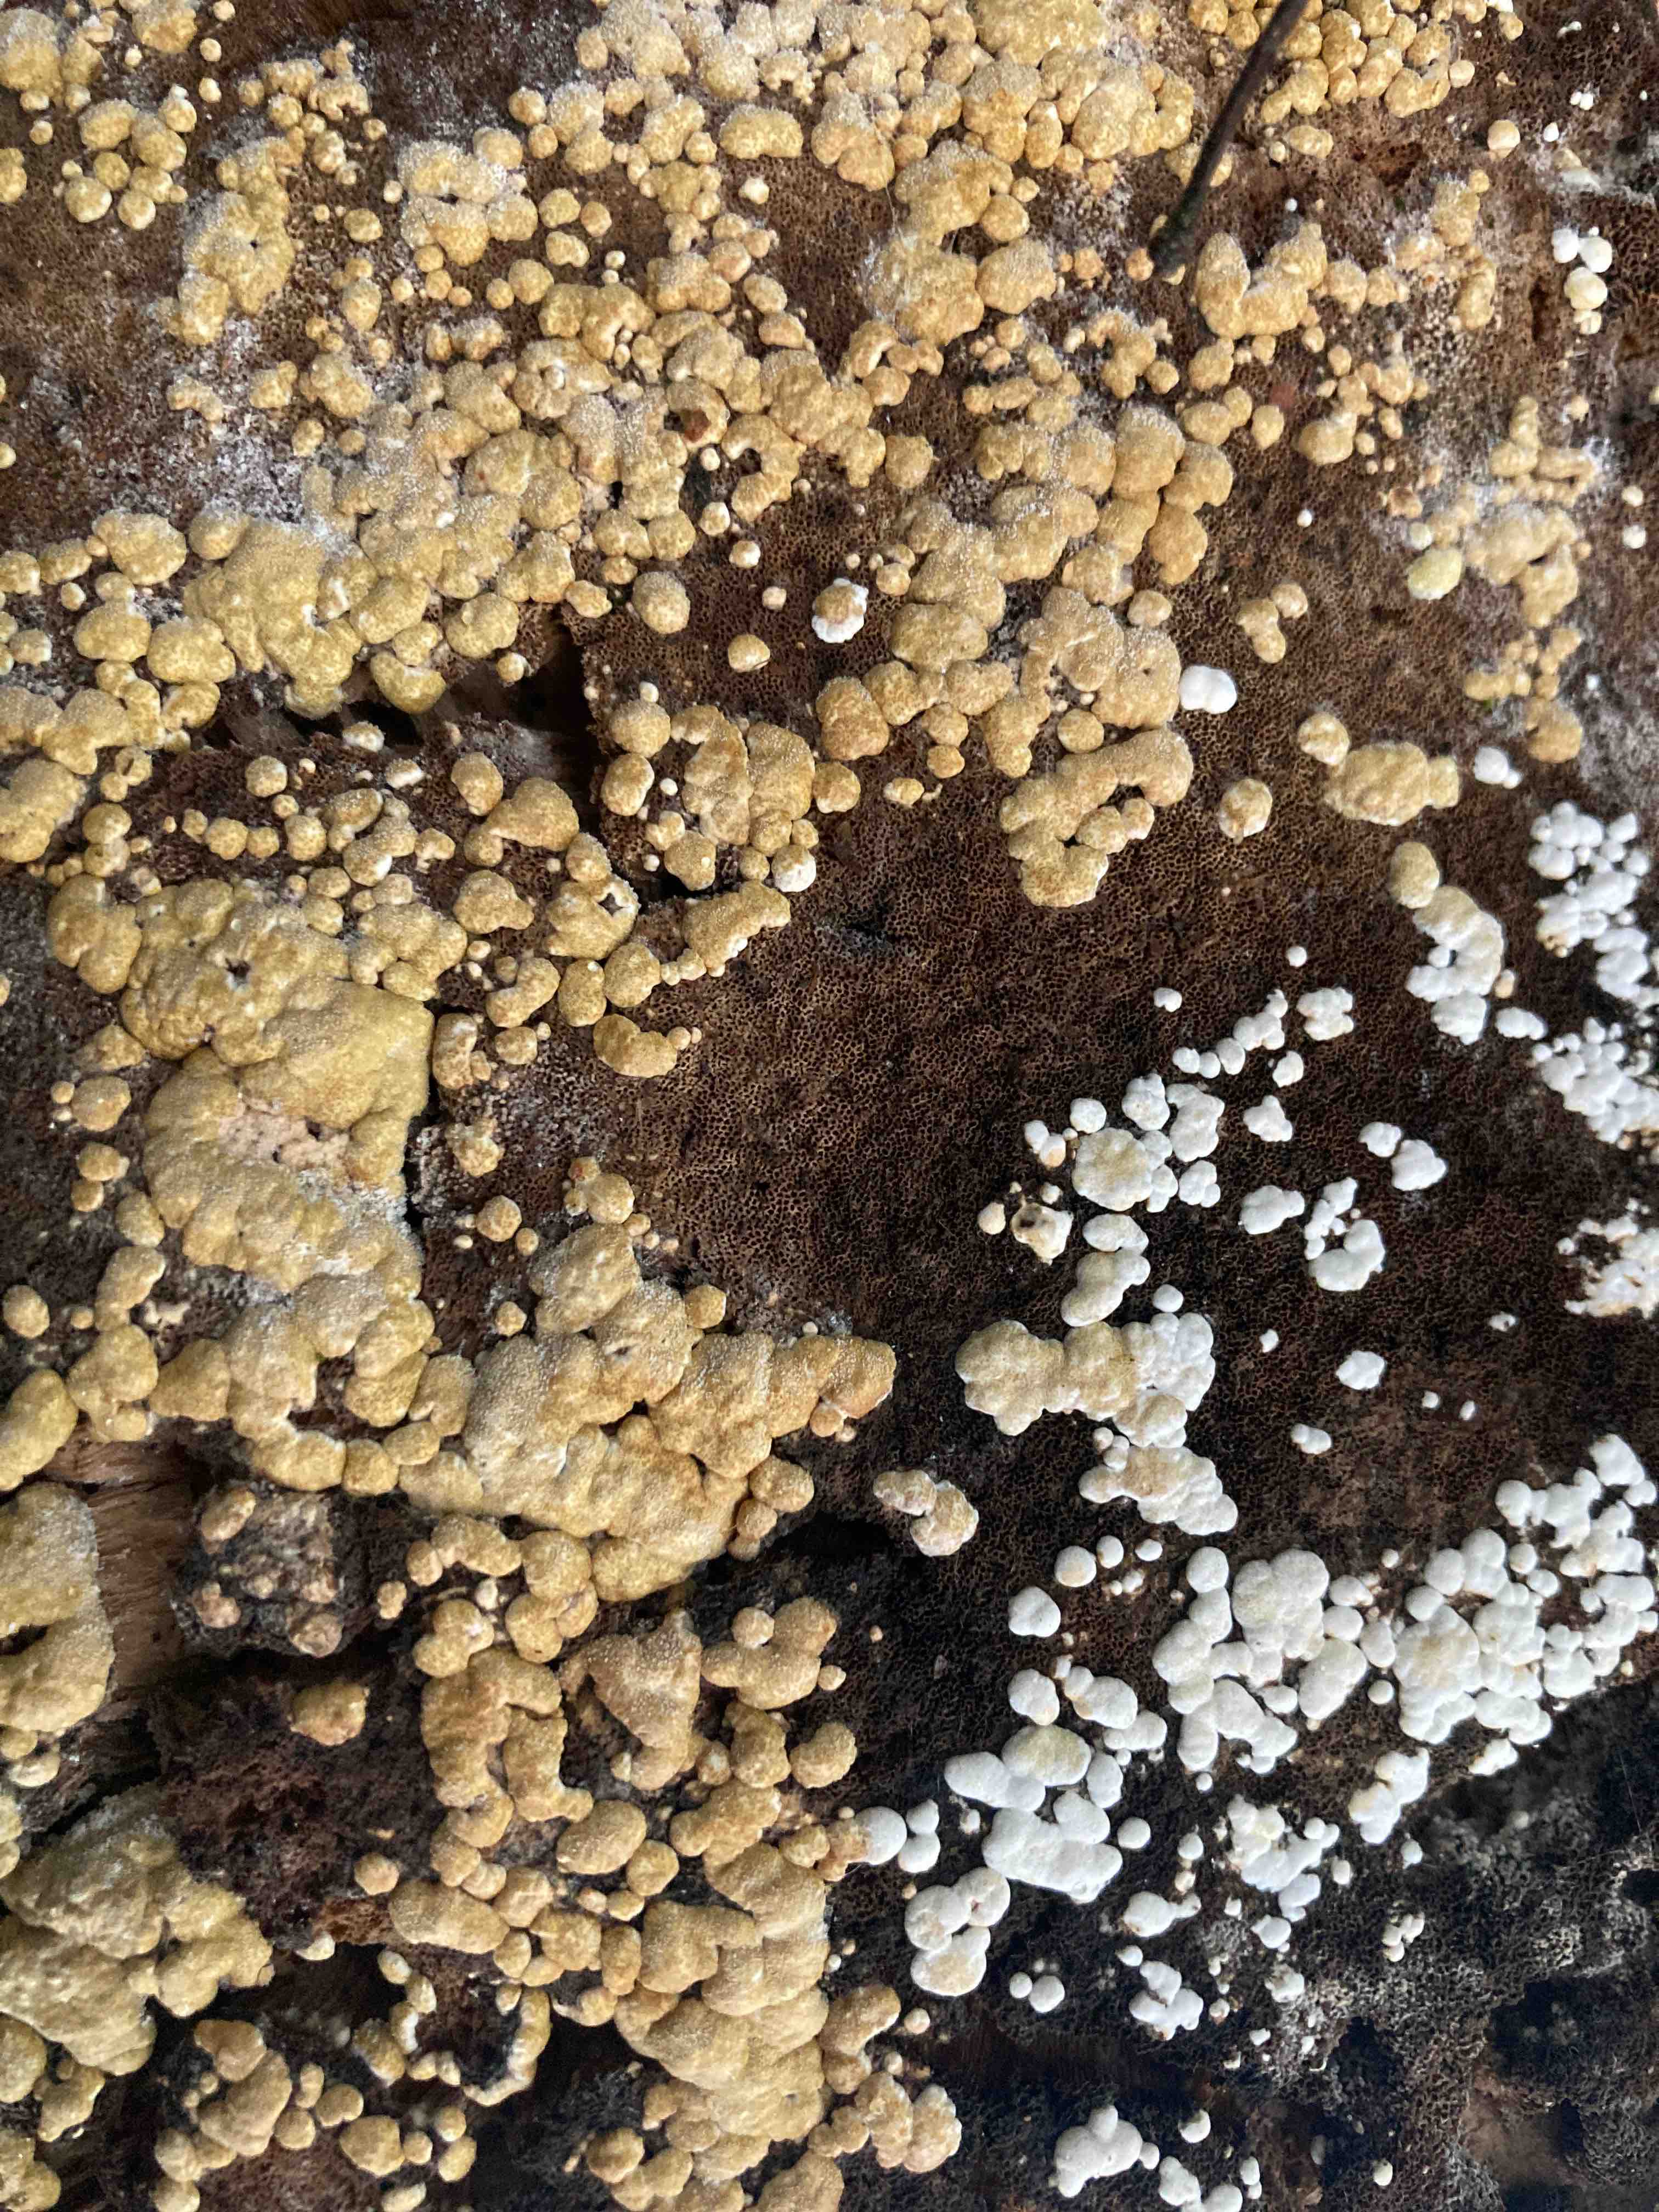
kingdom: Fungi
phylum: Ascomycota
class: Sordariomycetes
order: Hypocreales
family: Hypocreaceae
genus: Trichoderma
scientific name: Trichoderma pulvinatum
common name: snyltende kødkerne
